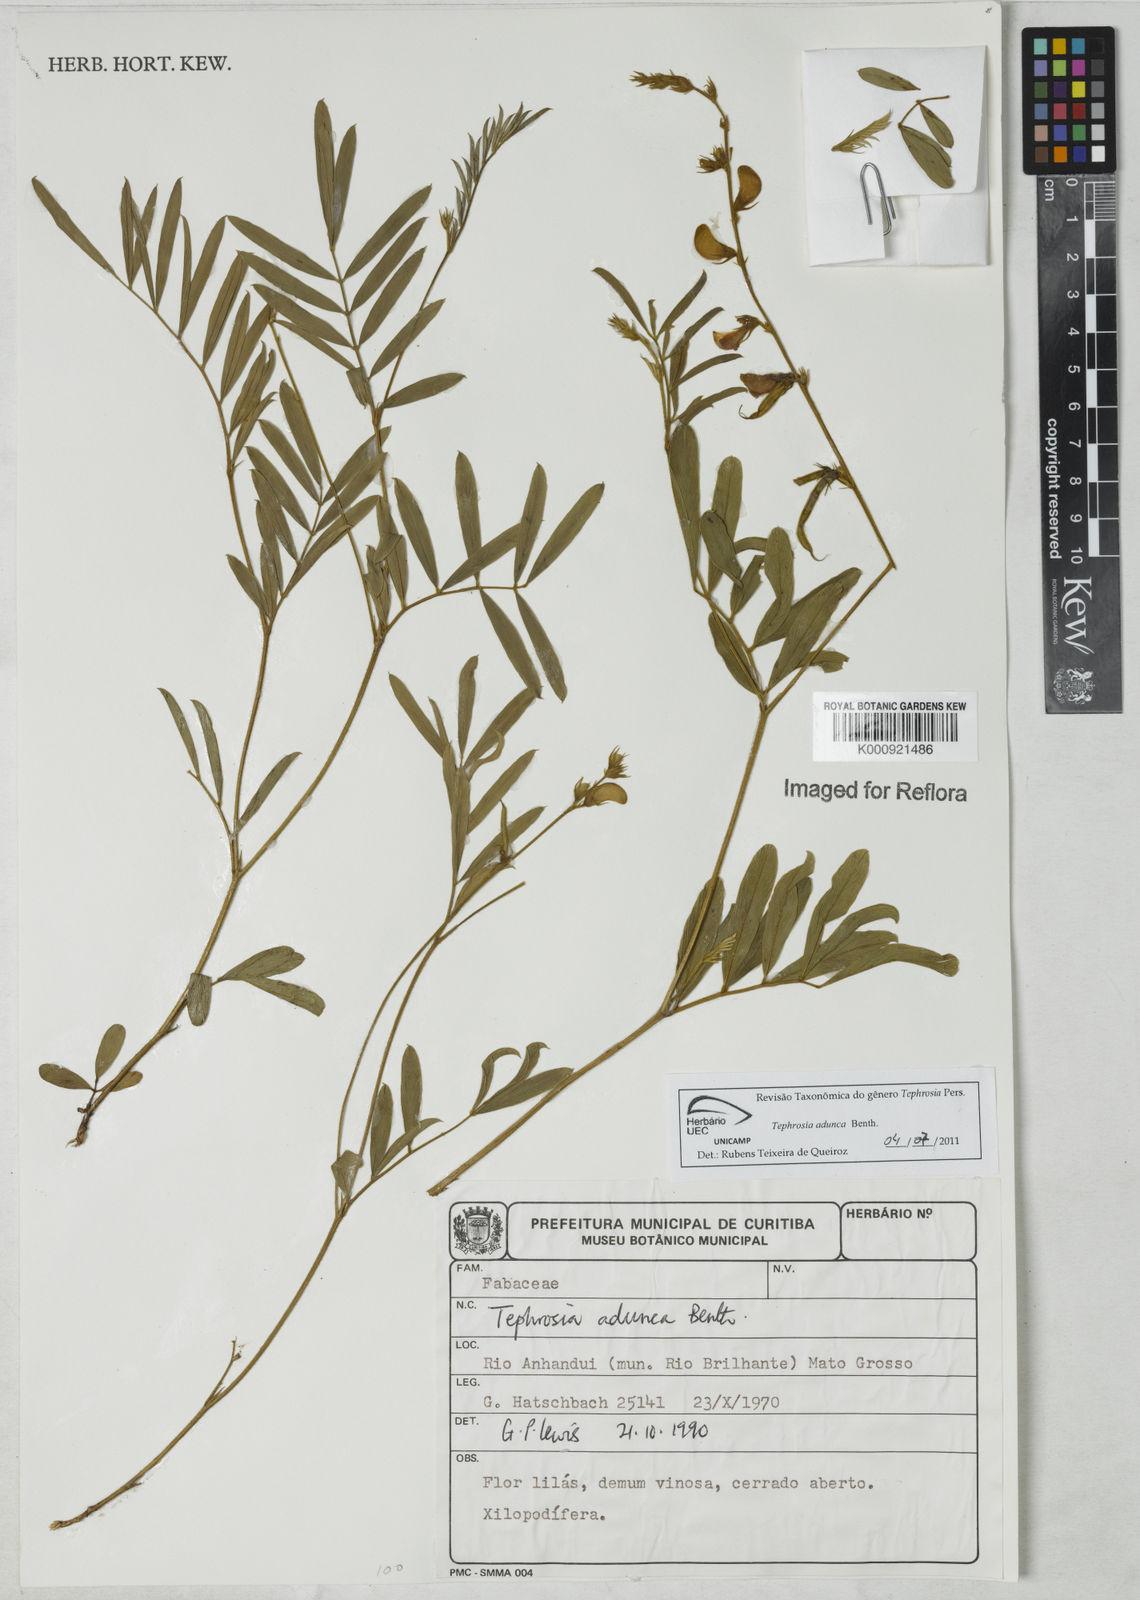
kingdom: Plantae
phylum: Tracheophyta
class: Magnoliopsida
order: Fabales
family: Fabaceae
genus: Tephrosia
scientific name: Tephrosia adunca
